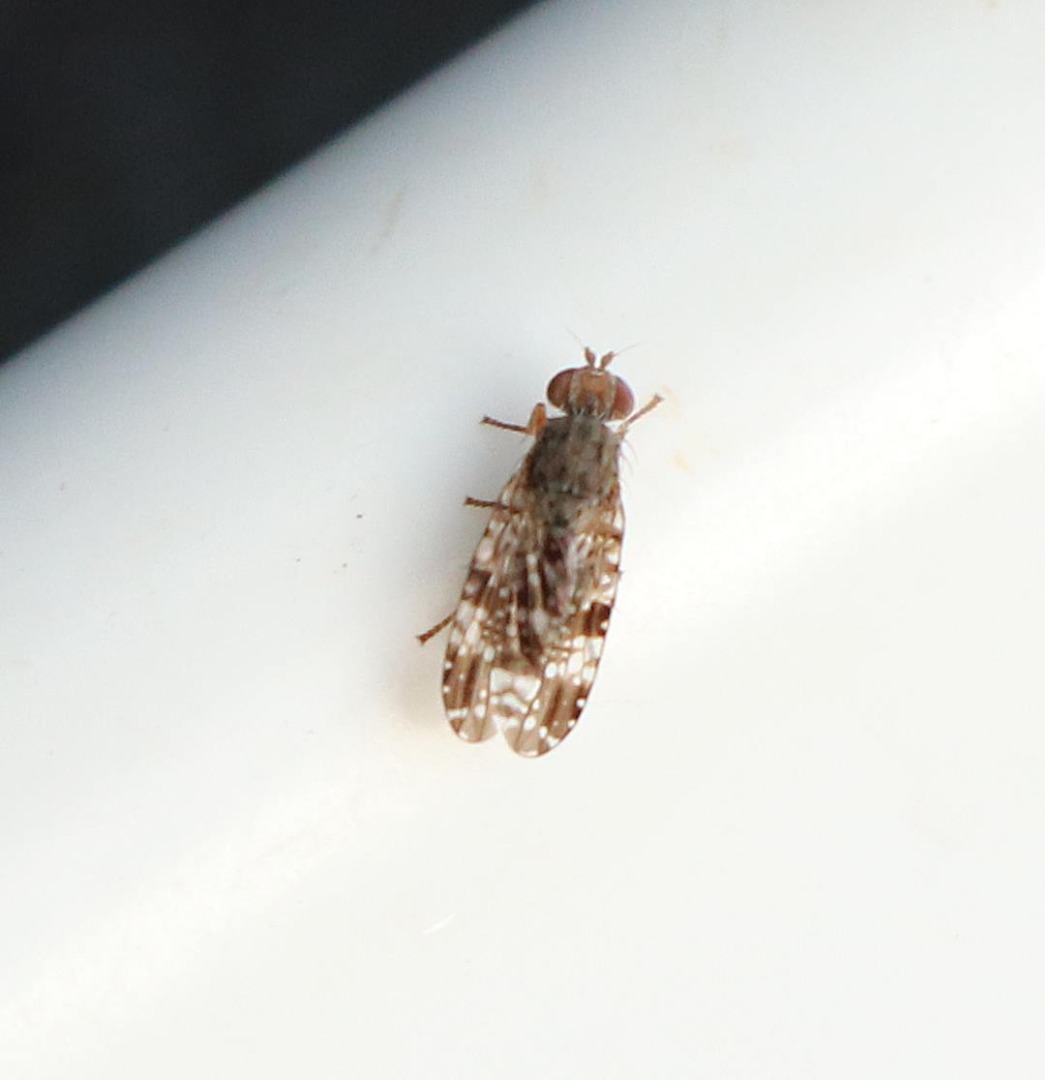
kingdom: Animalia
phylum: Arthropoda
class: Insecta
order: Diptera
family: Tephritidae
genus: Tephritis
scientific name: Tephritis vespertina
